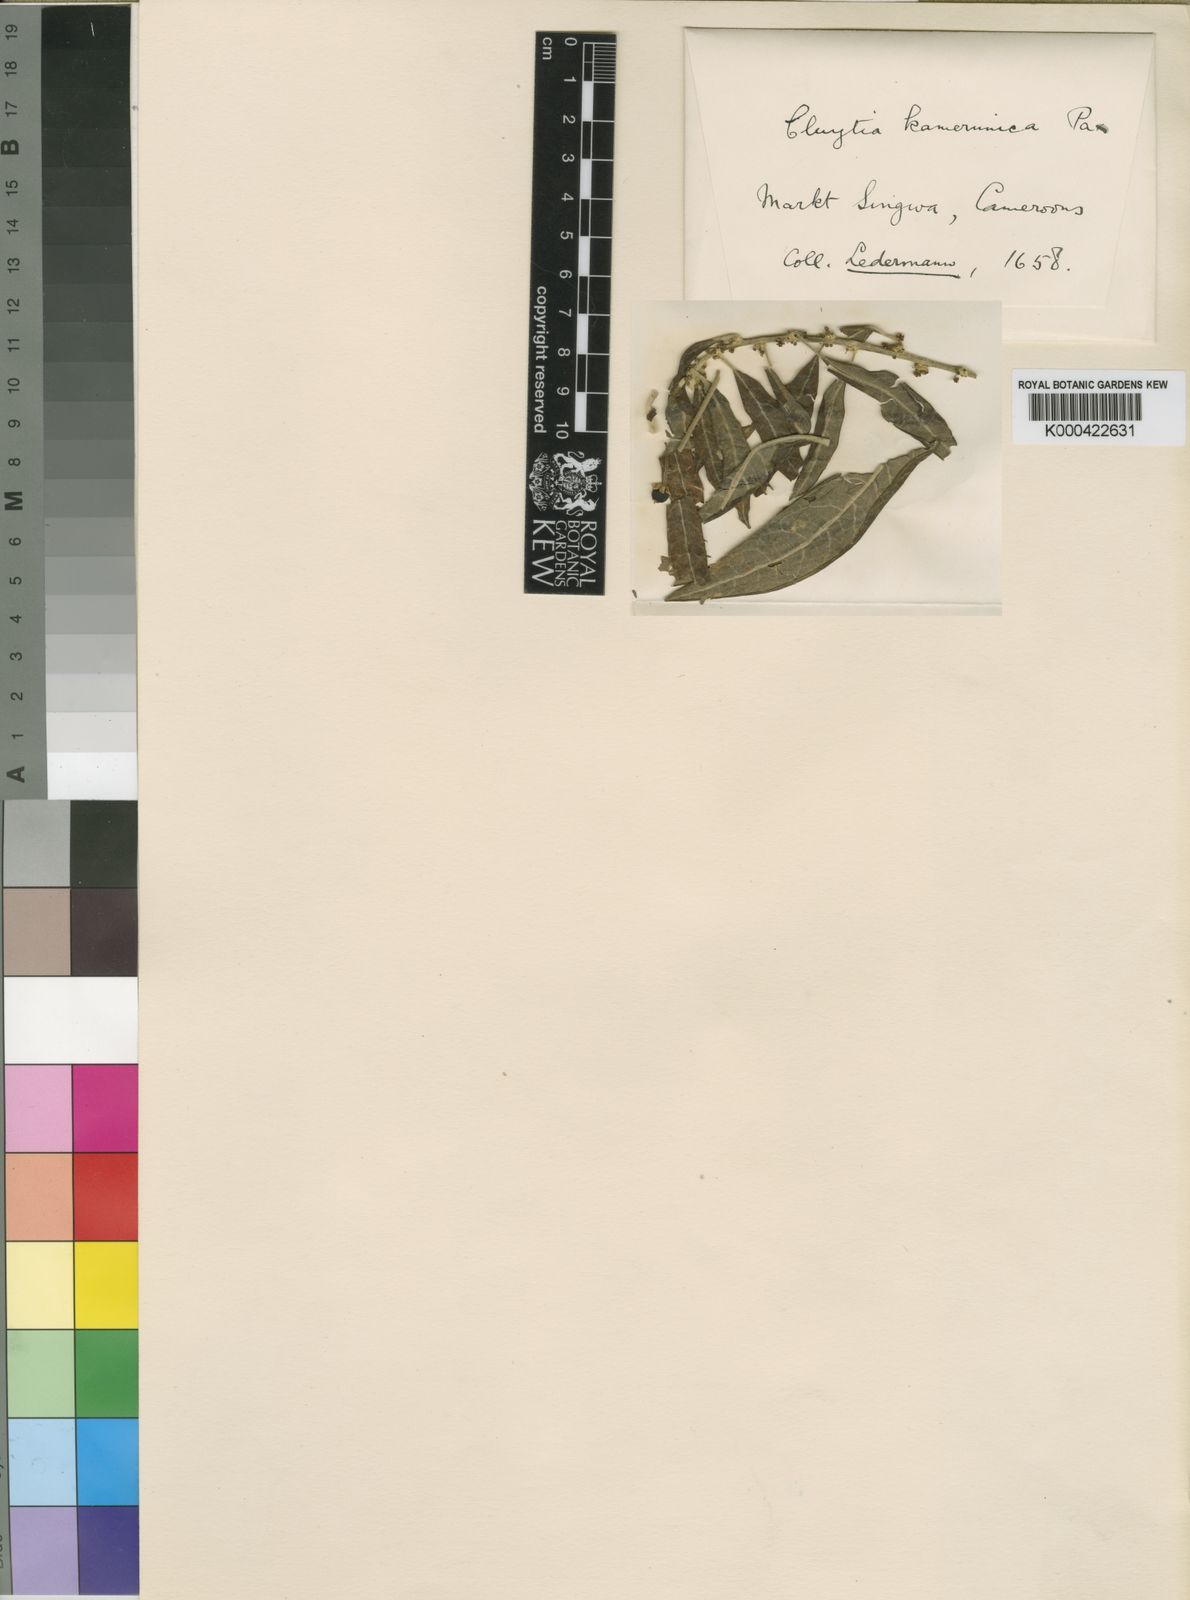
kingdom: Plantae
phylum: Tracheophyta
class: Magnoliopsida
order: Malpighiales
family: Peraceae
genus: Clutia
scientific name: Clutia kamerunica
